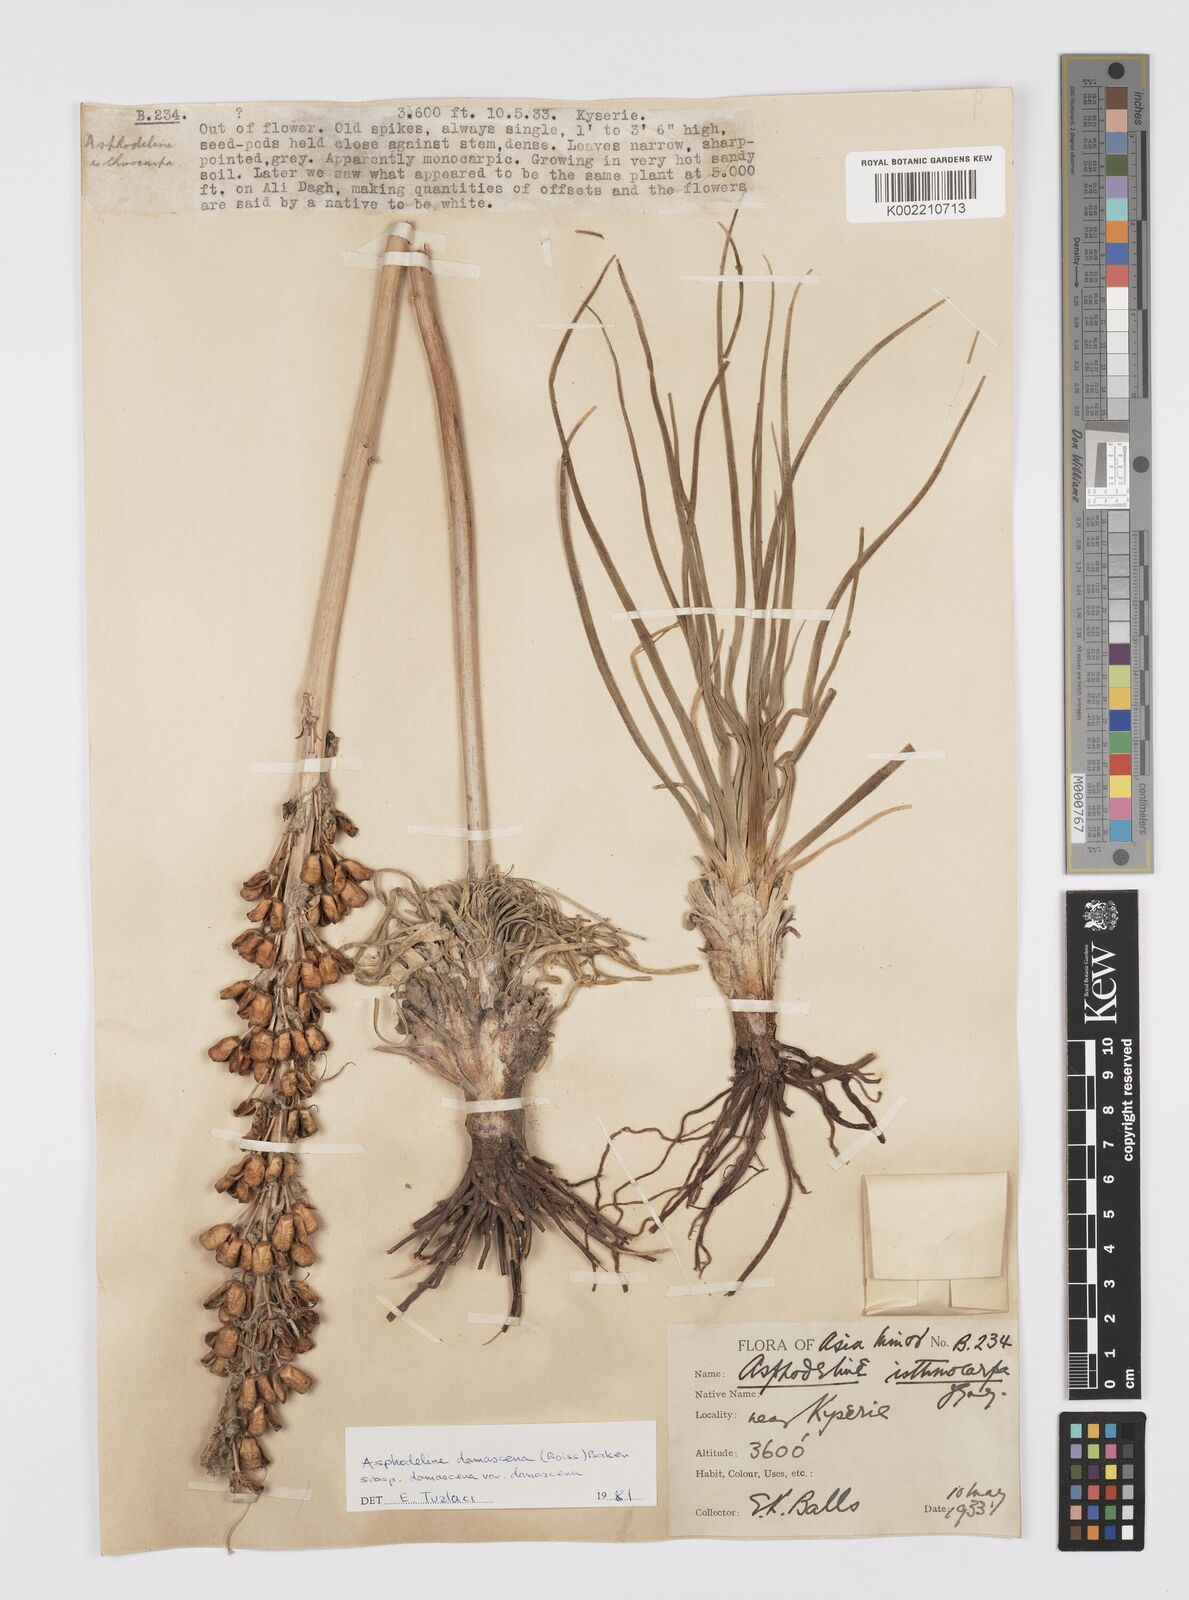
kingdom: Plantae
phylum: Tracheophyta
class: Liliopsida
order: Asparagales
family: Asphodelaceae
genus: Asphodeline
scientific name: Asphodeline damascena
